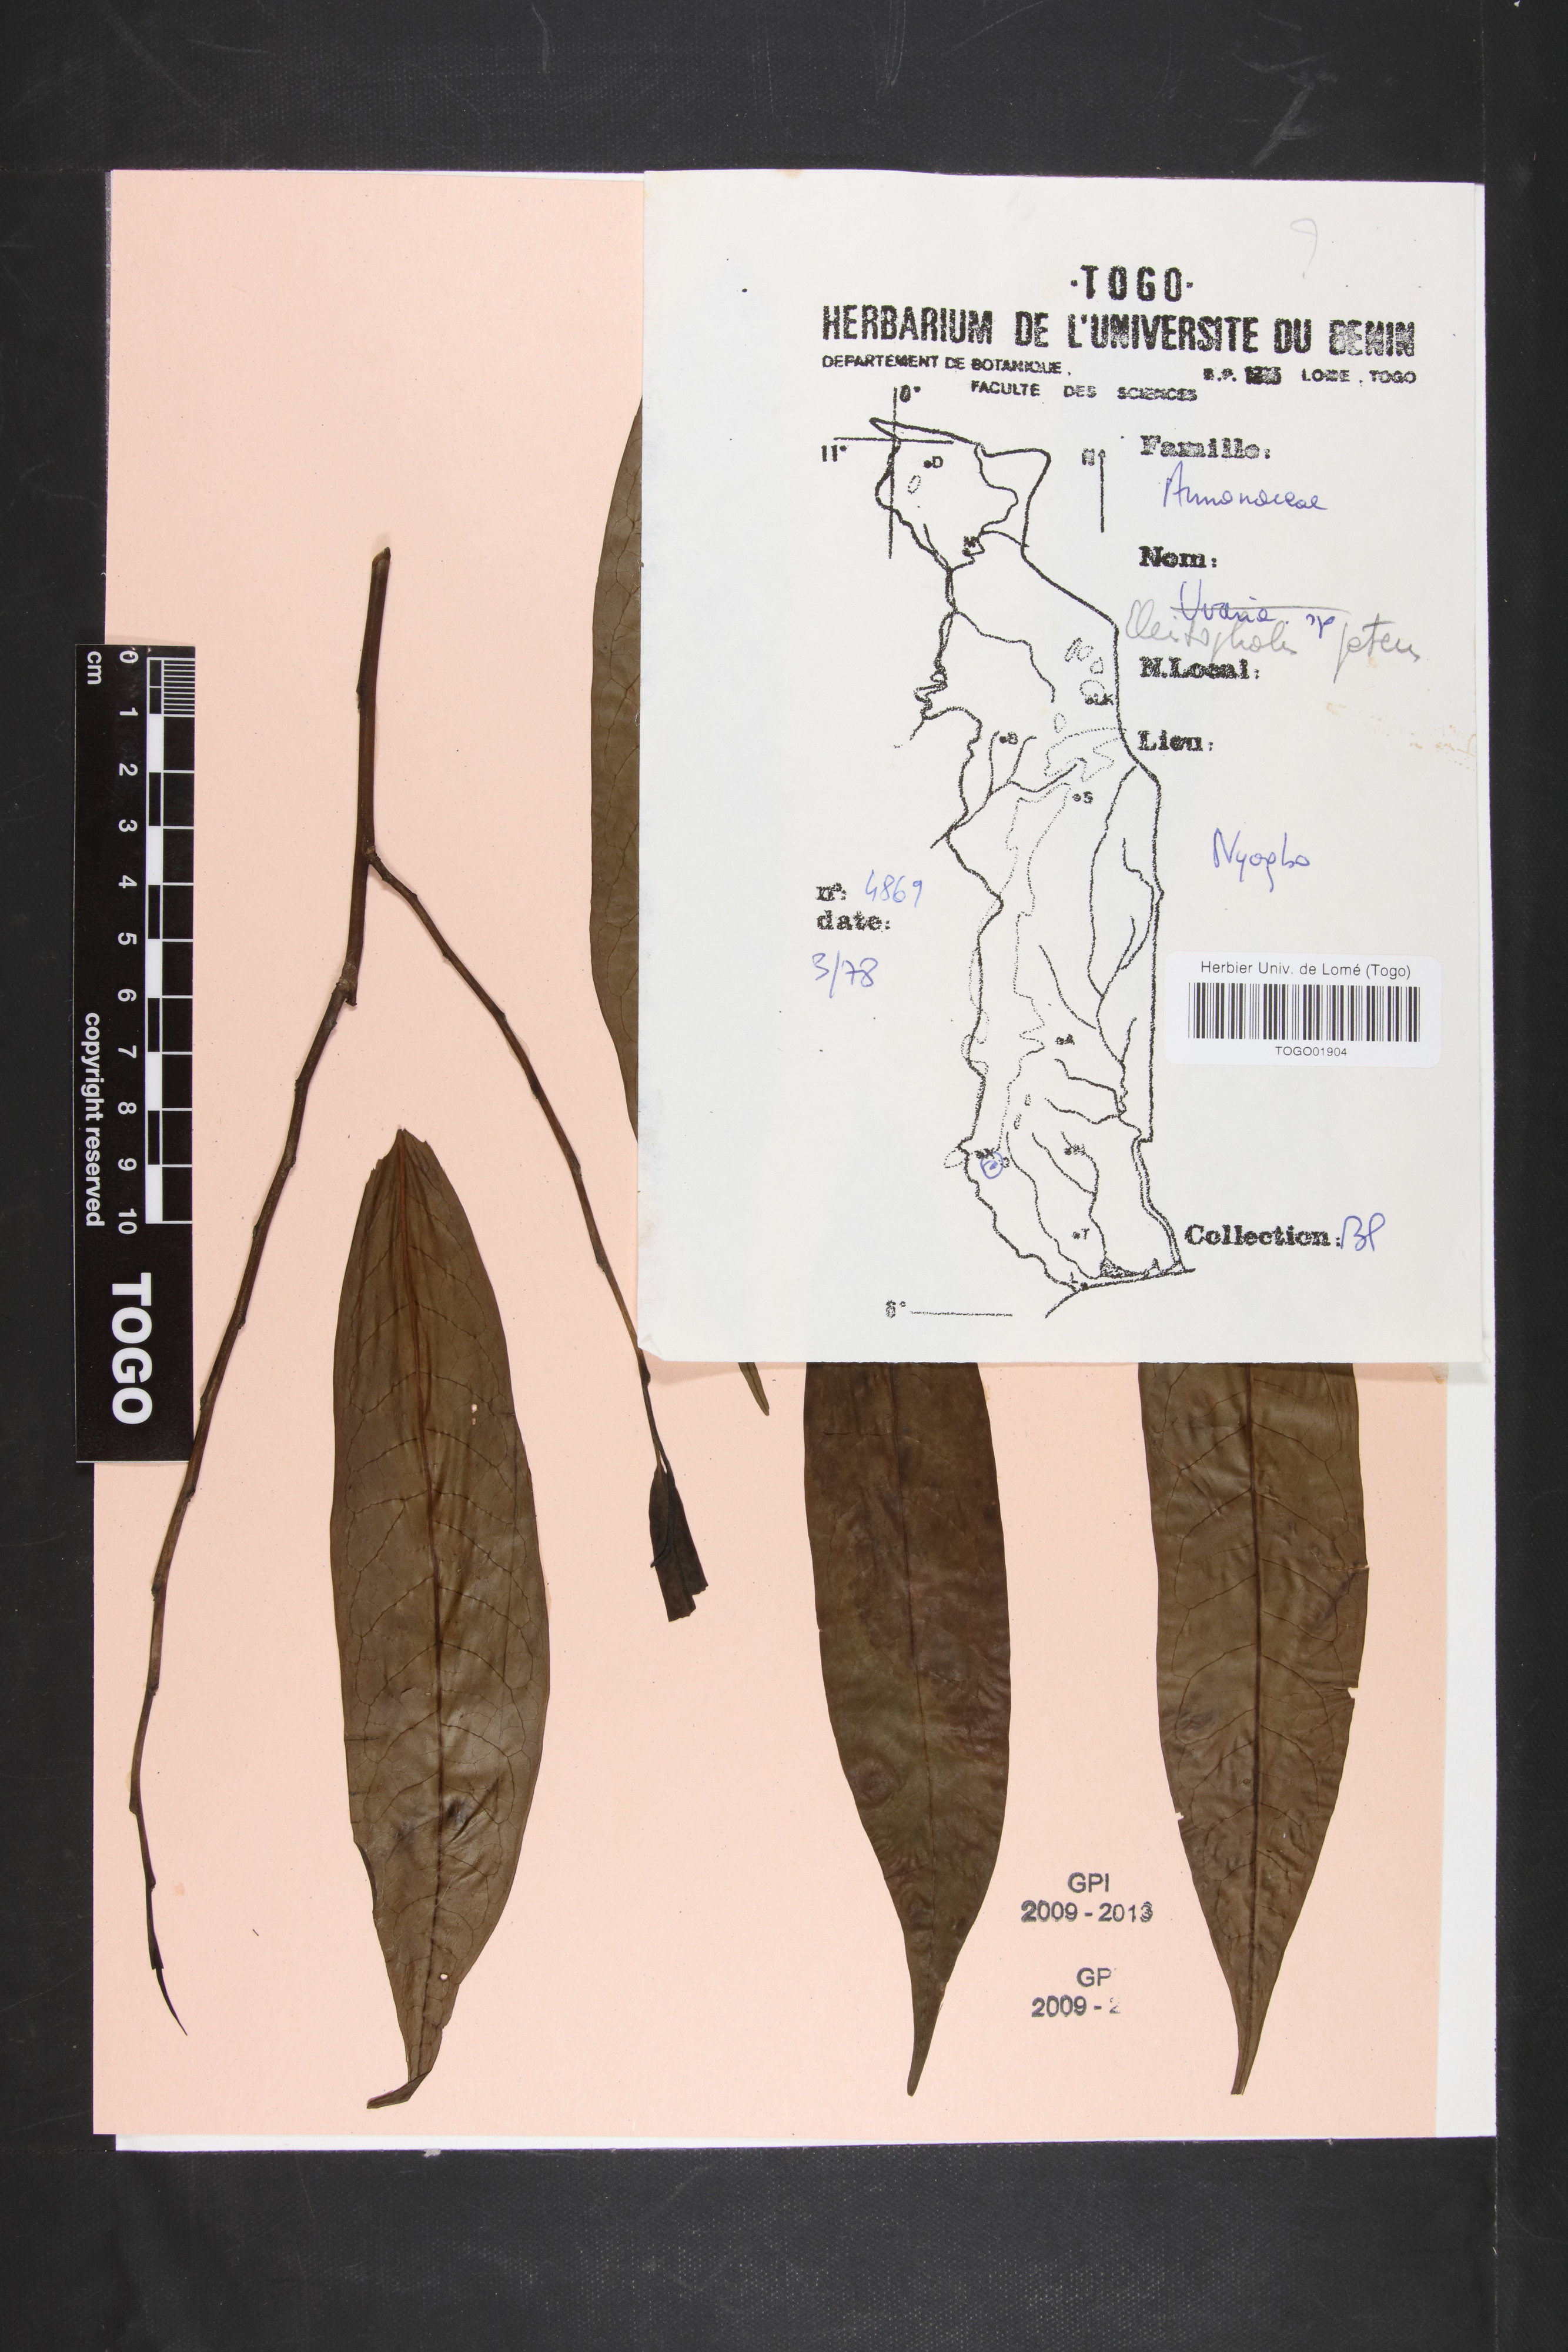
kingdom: Plantae
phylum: Tracheophyta
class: Magnoliopsida
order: Magnoliales
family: Annonaceae
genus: Cleistopholis
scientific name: Cleistopholis patens
